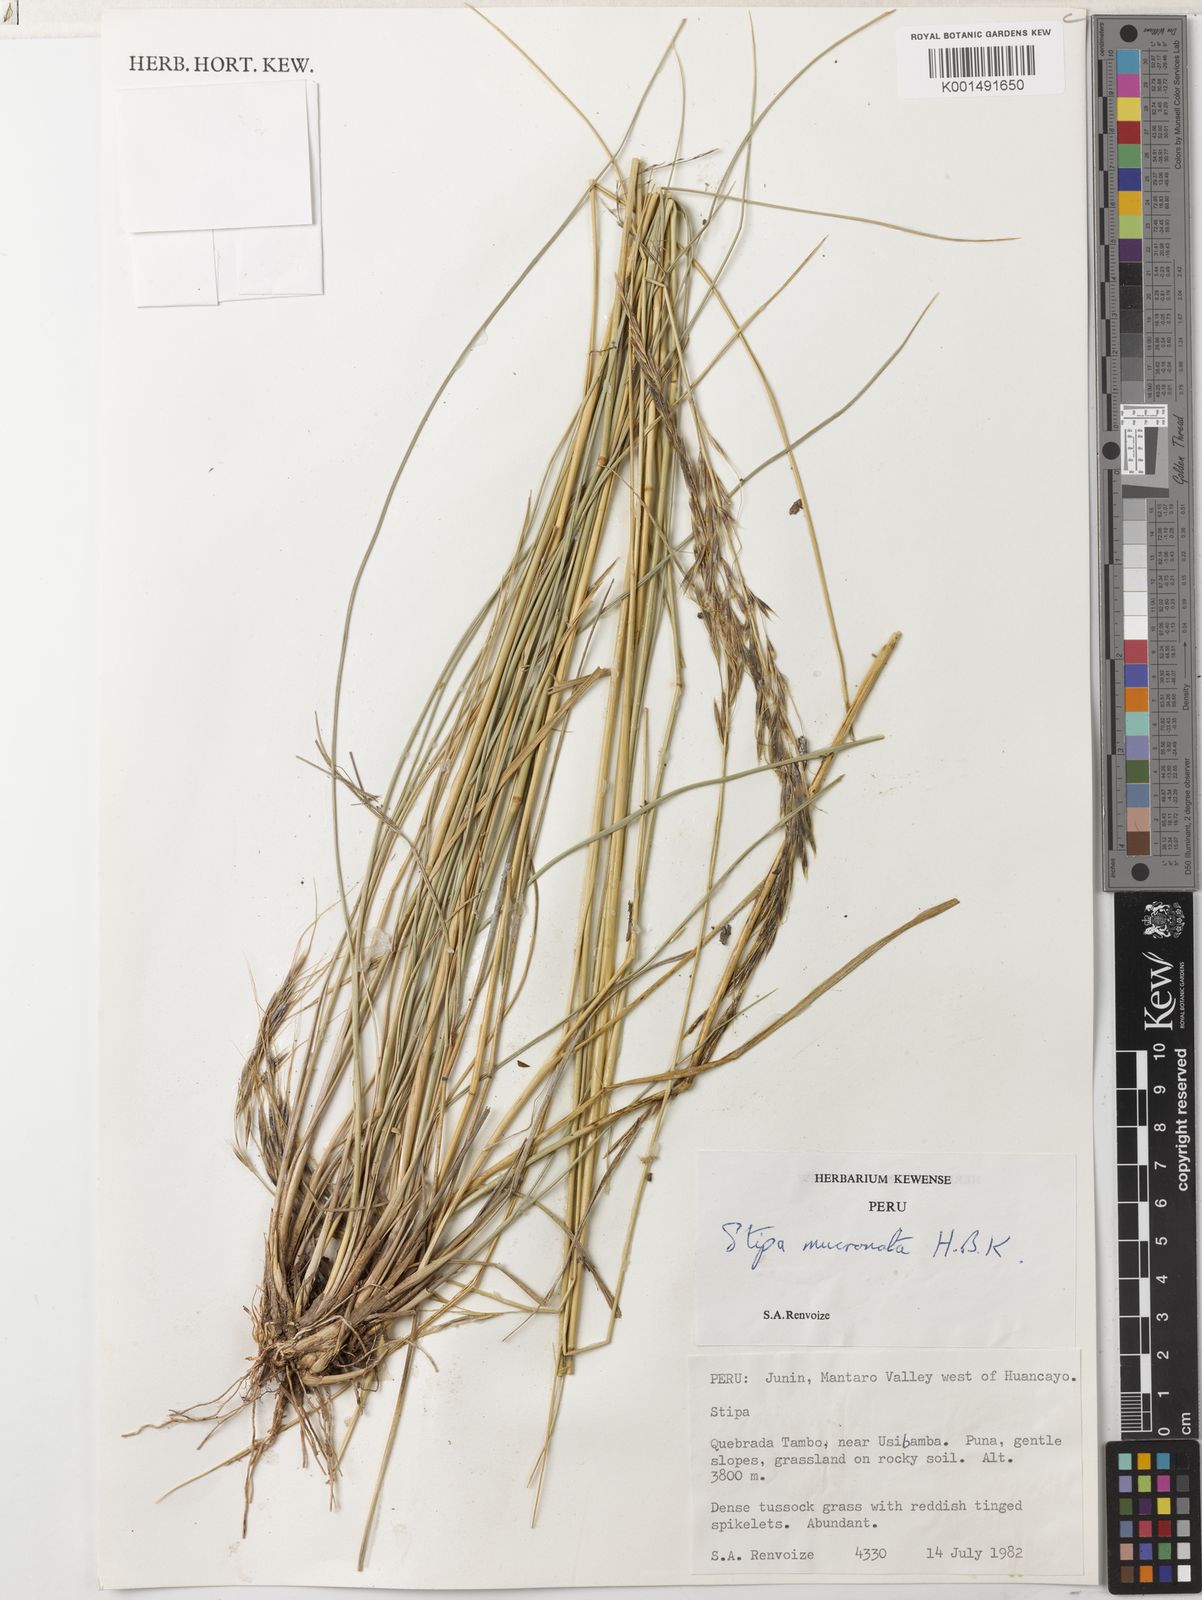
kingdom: Plantae
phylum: Tracheophyta
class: Liliopsida
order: Poales
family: Poaceae
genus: Nassella
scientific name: Nassella mucronata
